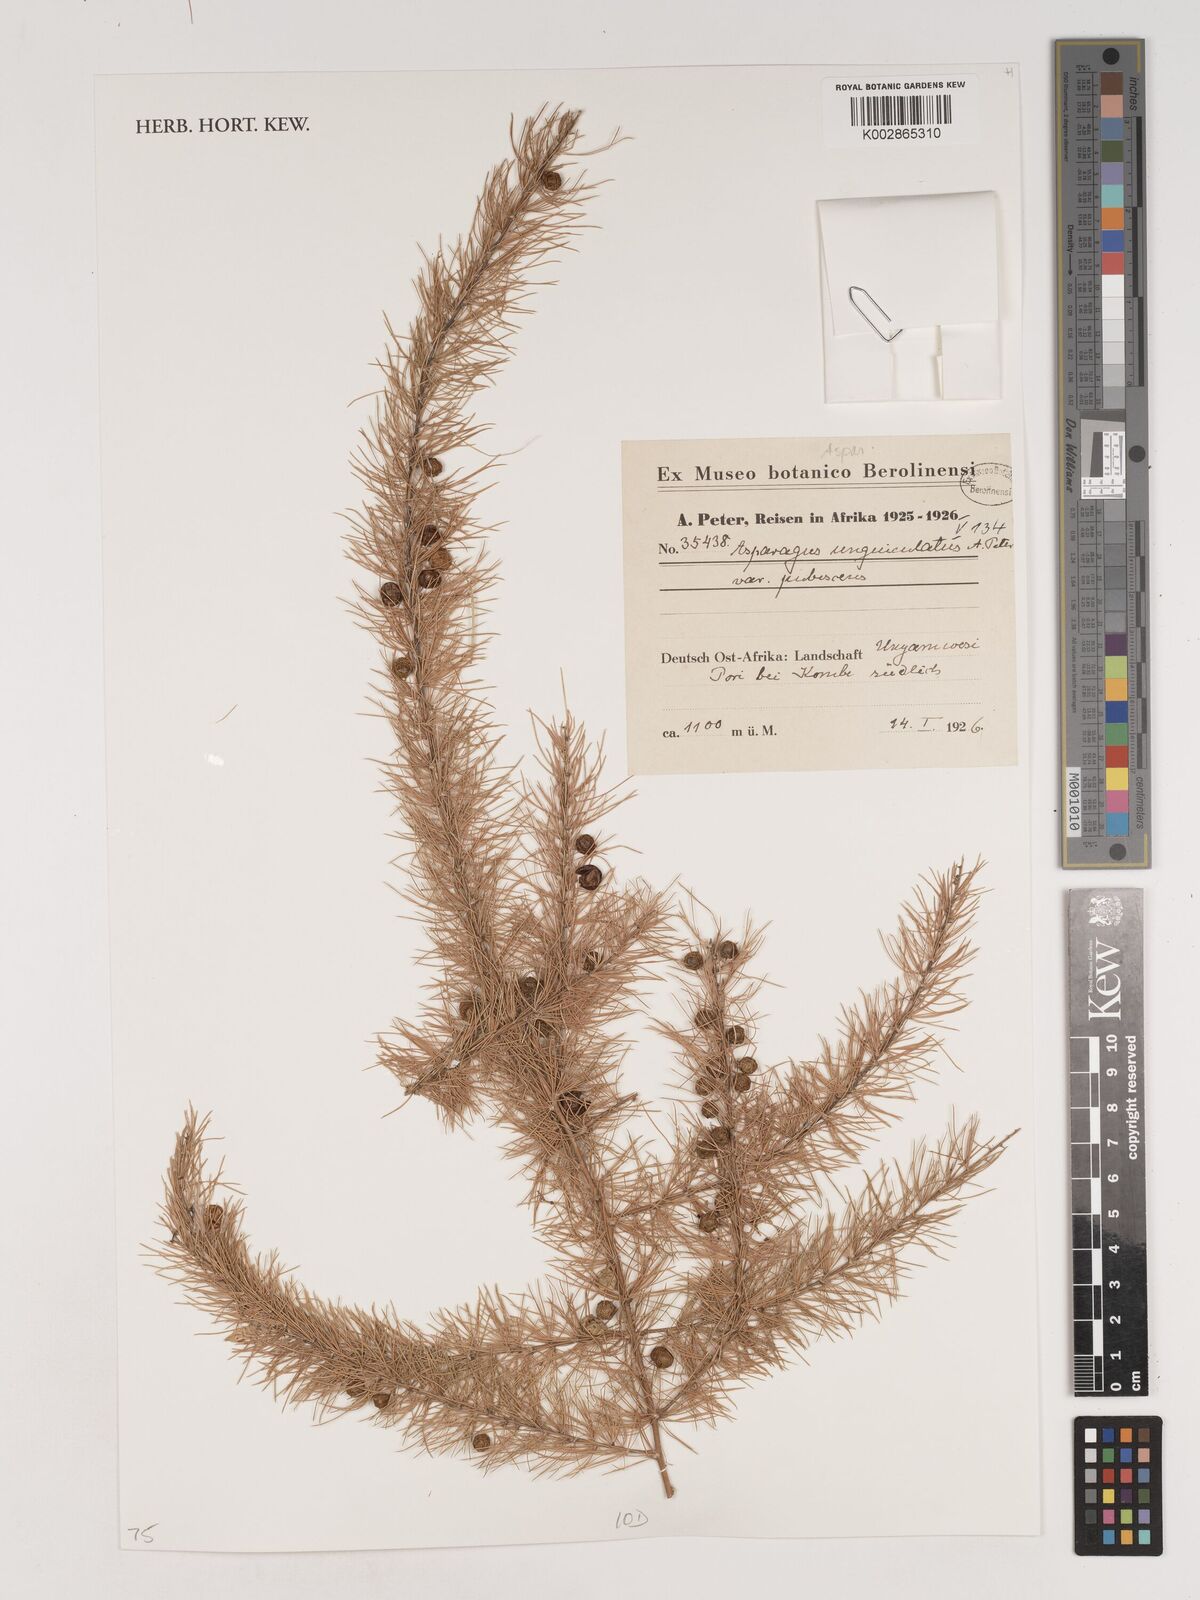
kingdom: Plantae
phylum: Tracheophyta
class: Liliopsida
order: Asparagales
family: Asparagaceae
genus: Asparagus
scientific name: Asparagus
